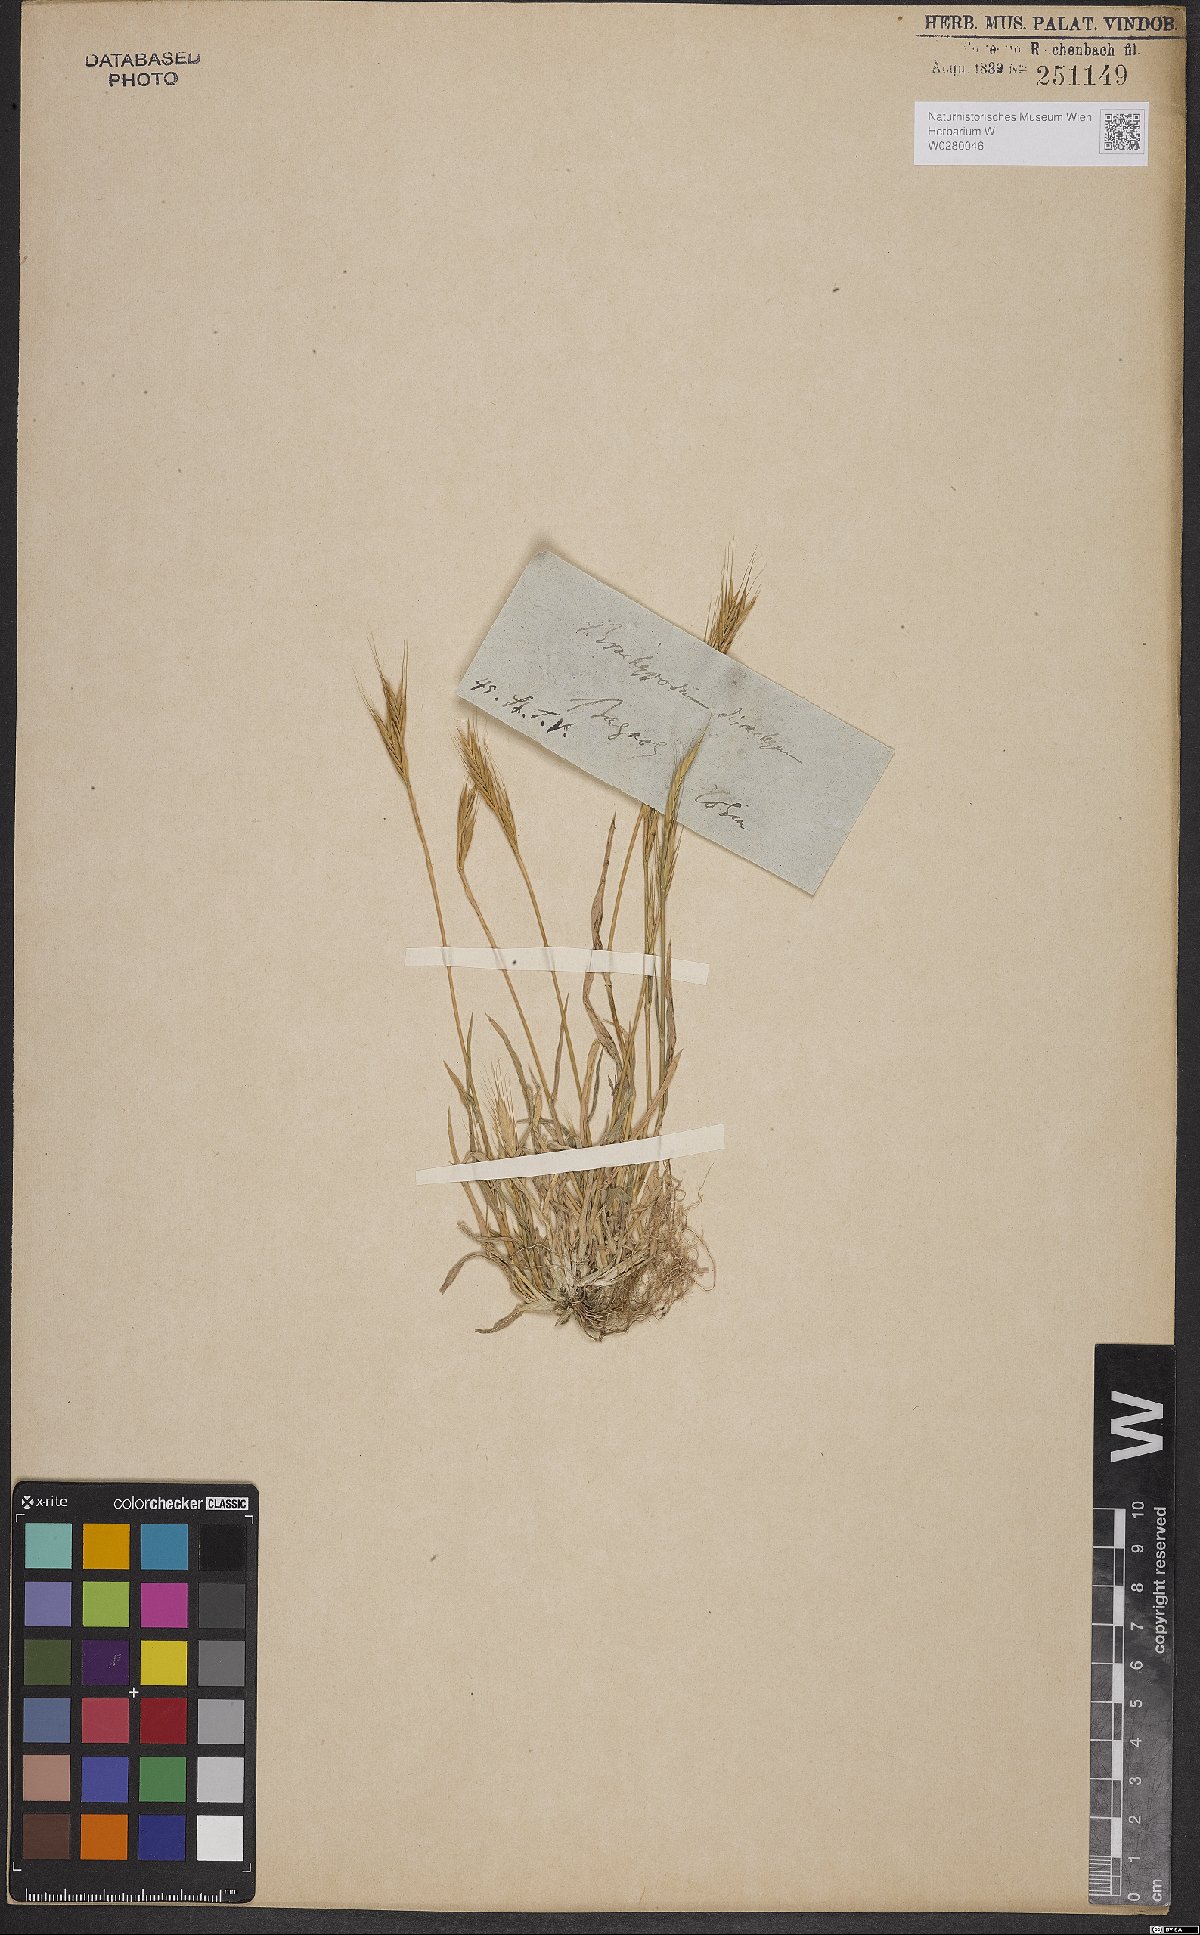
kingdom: Plantae
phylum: Tracheophyta
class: Liliopsida
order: Poales
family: Poaceae
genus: Brachypodium
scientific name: Brachypodium distachyon
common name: Stiff brome
